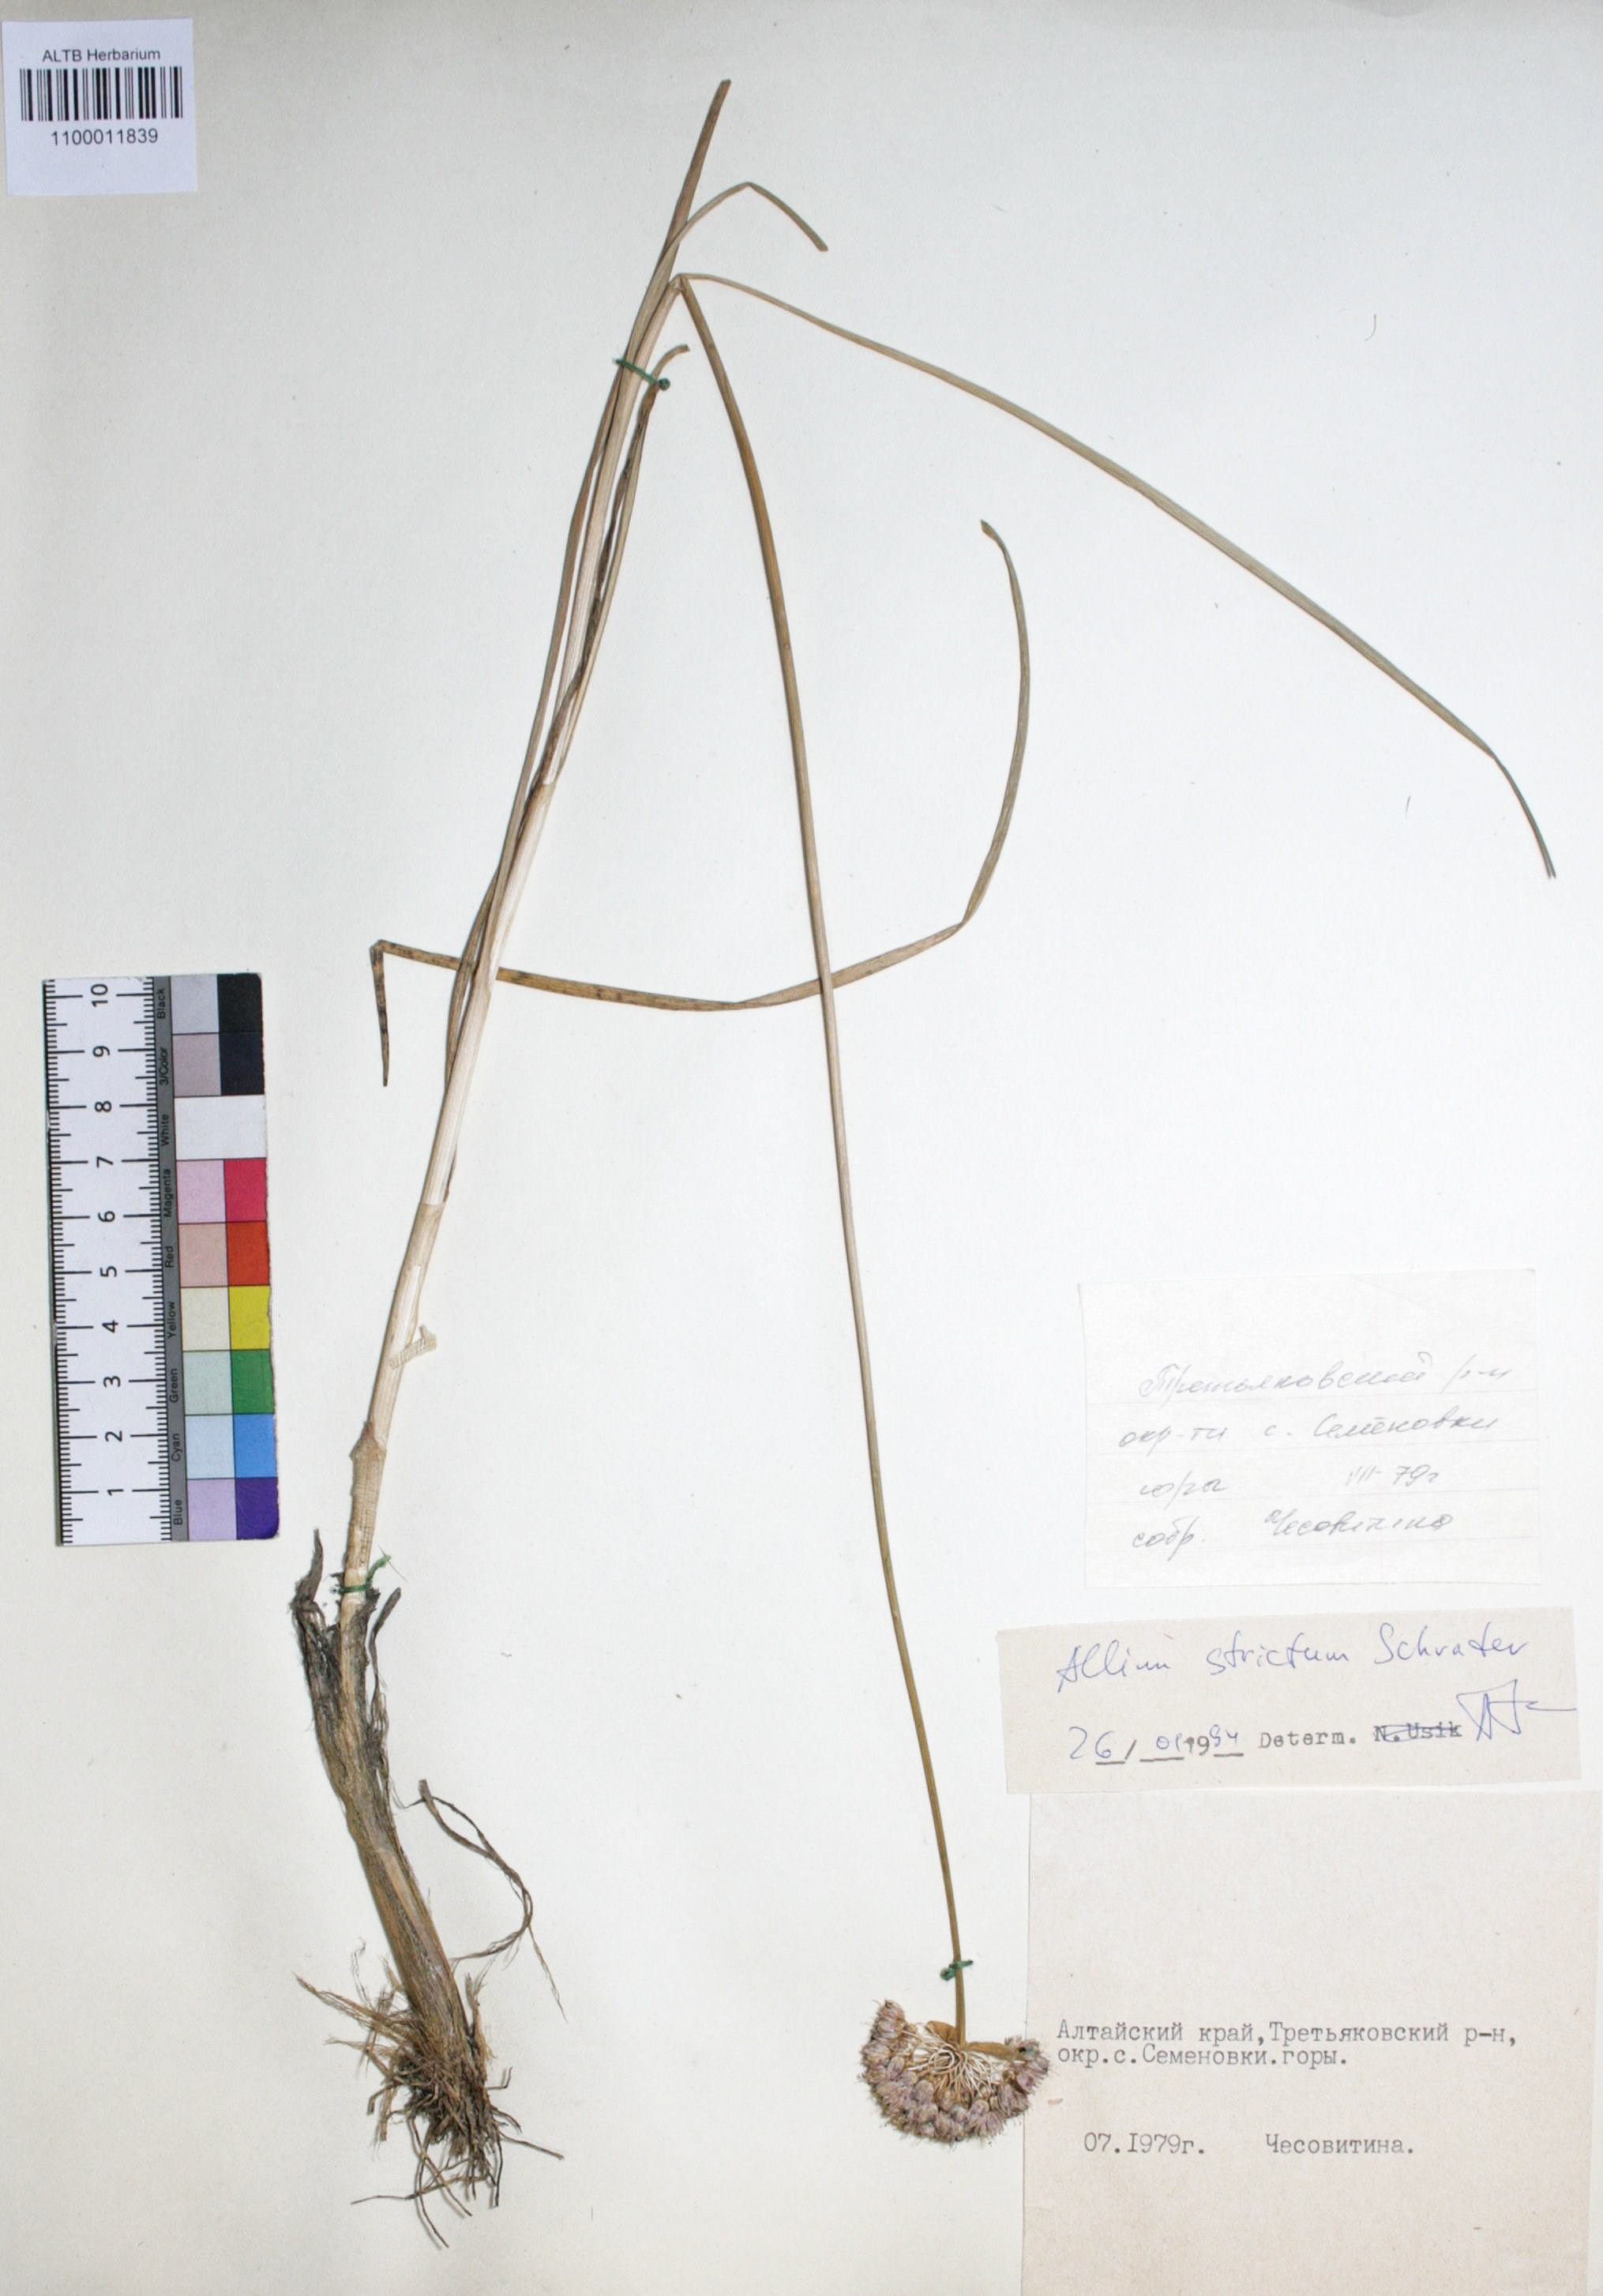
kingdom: Plantae
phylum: Tracheophyta
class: Liliopsida
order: Asparagales
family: Amaryllidaceae
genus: Allium
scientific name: Allium strictum
